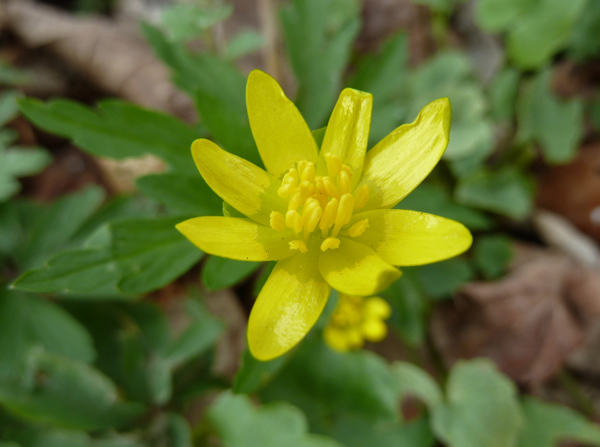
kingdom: Plantae
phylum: Tracheophyta
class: Magnoliopsida
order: Ranunculales
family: Ranunculaceae
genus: Ficaria
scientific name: Ficaria verna
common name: Lesser celandine
